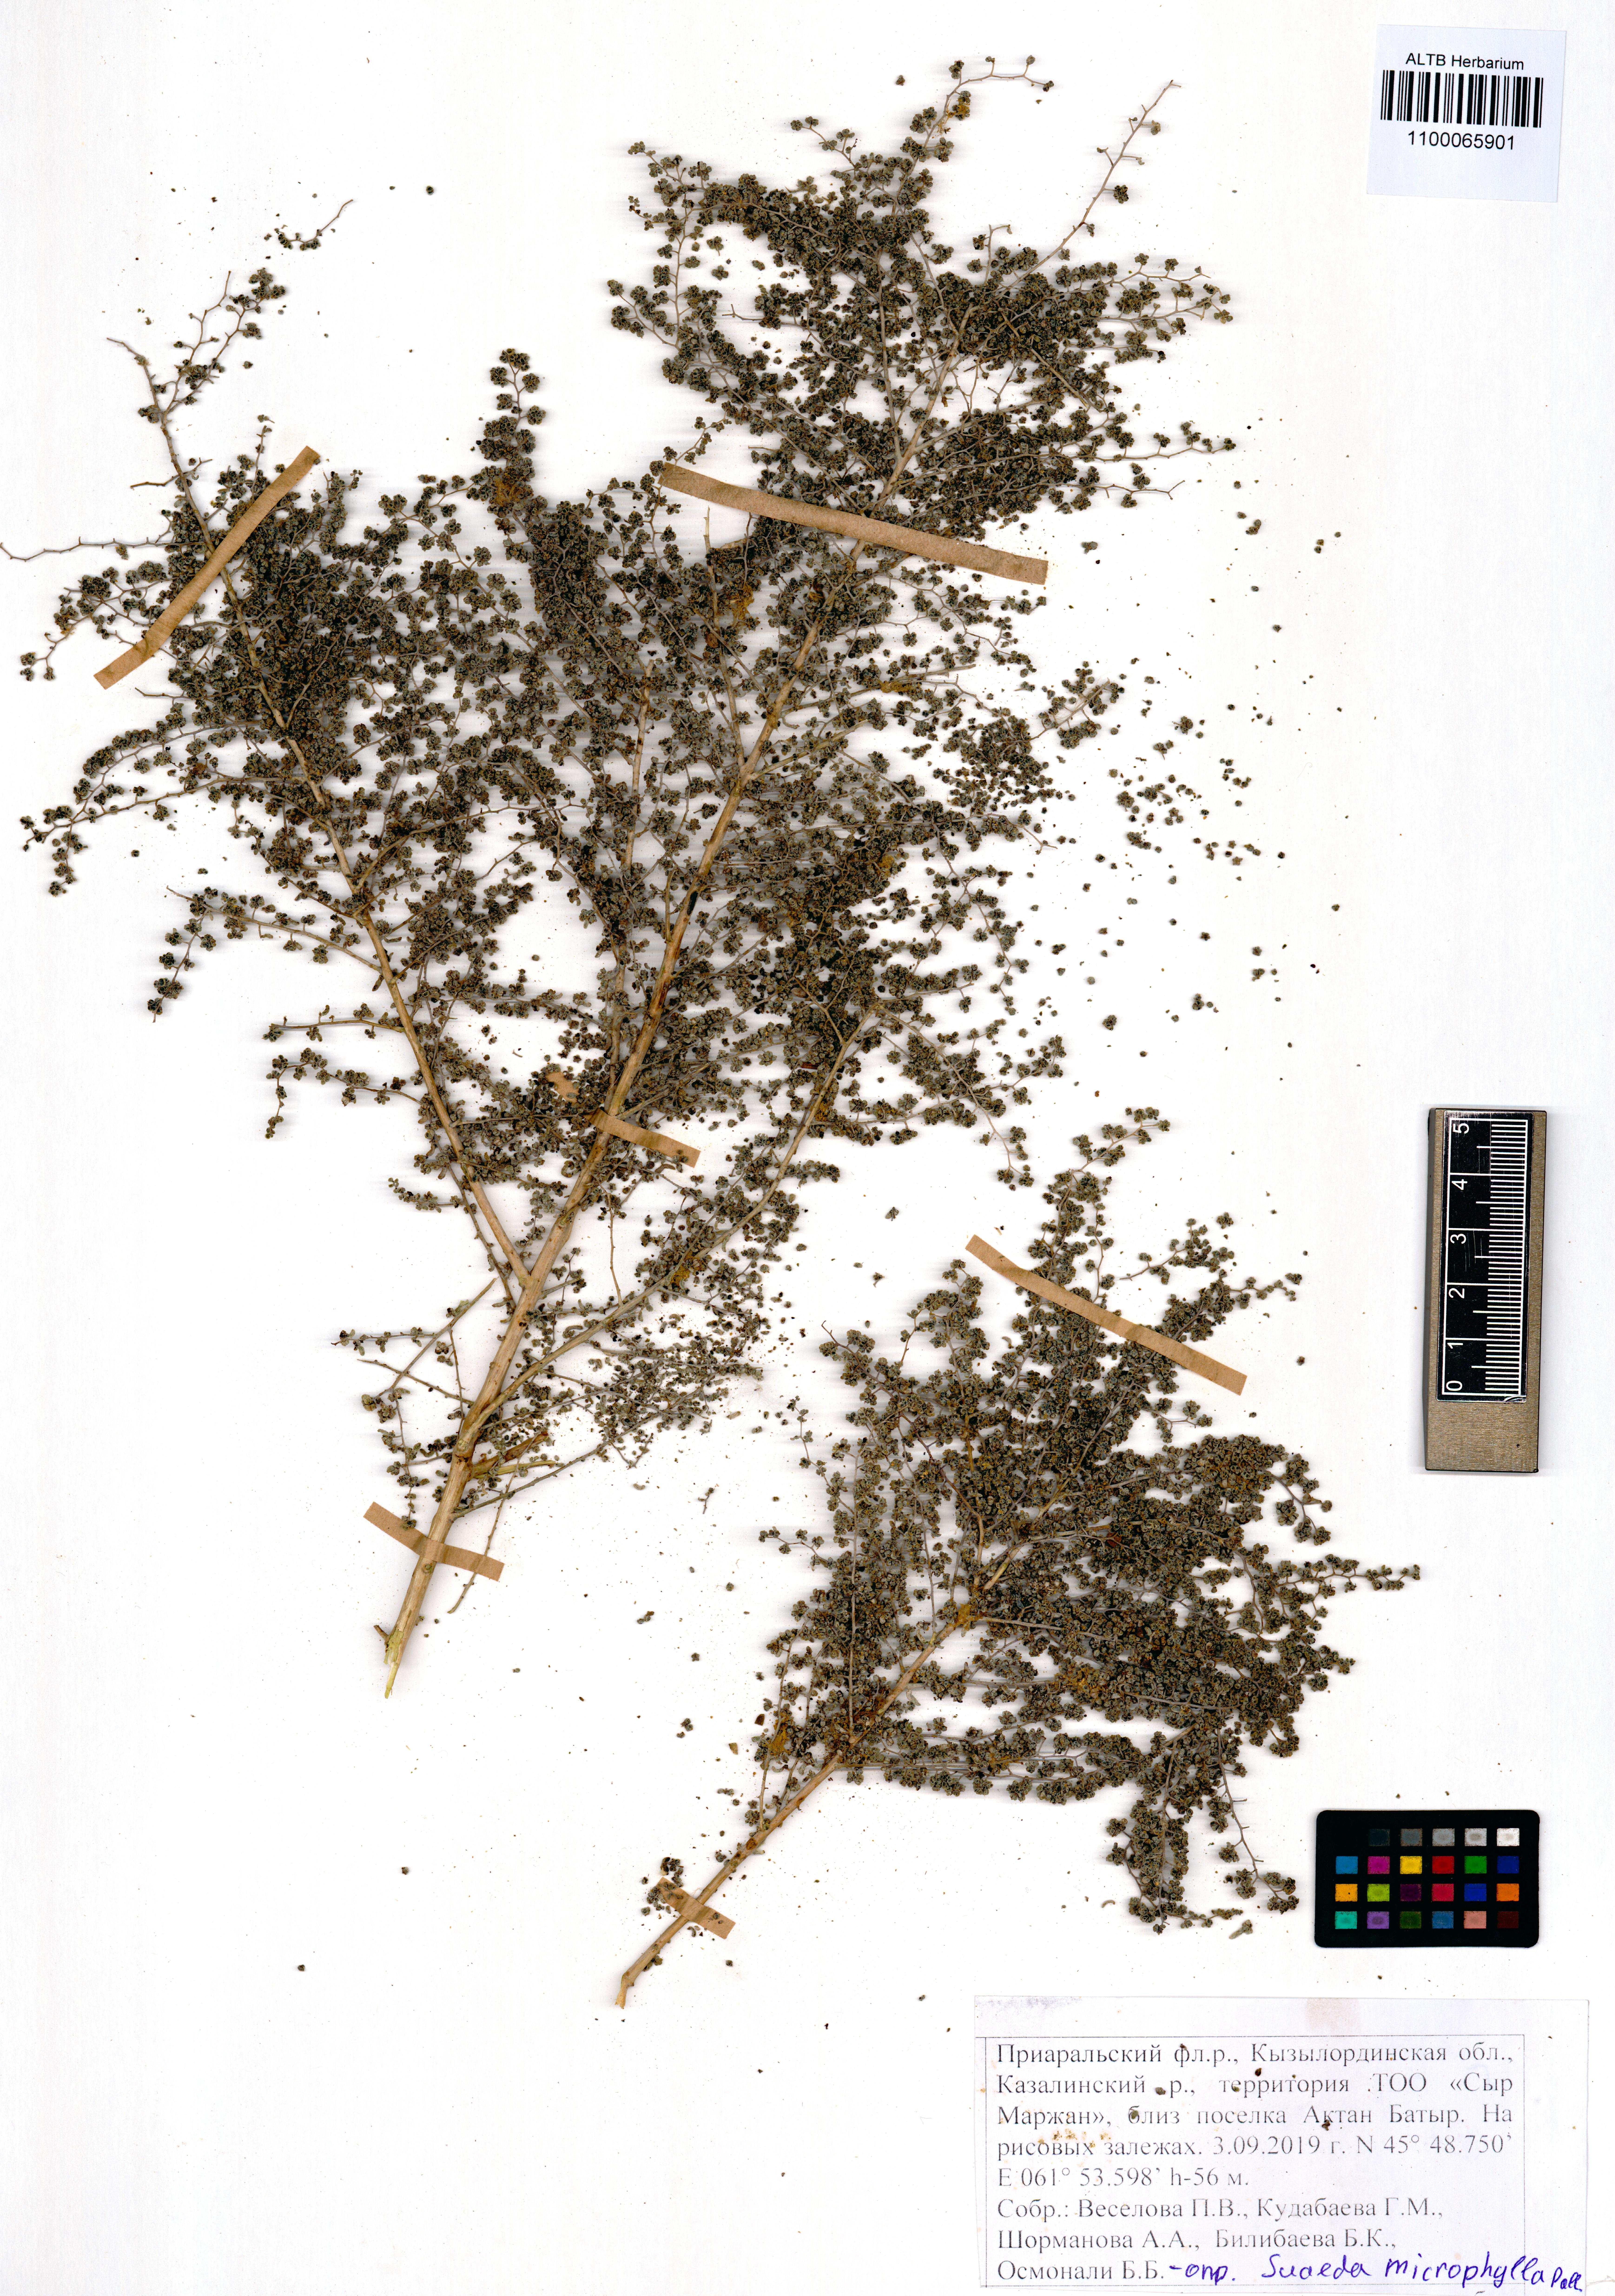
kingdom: Plantae
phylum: Tracheophyta
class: Magnoliopsida
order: Caryophyllales
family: Amaranthaceae
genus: Suaeda
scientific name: Suaeda microphylla
